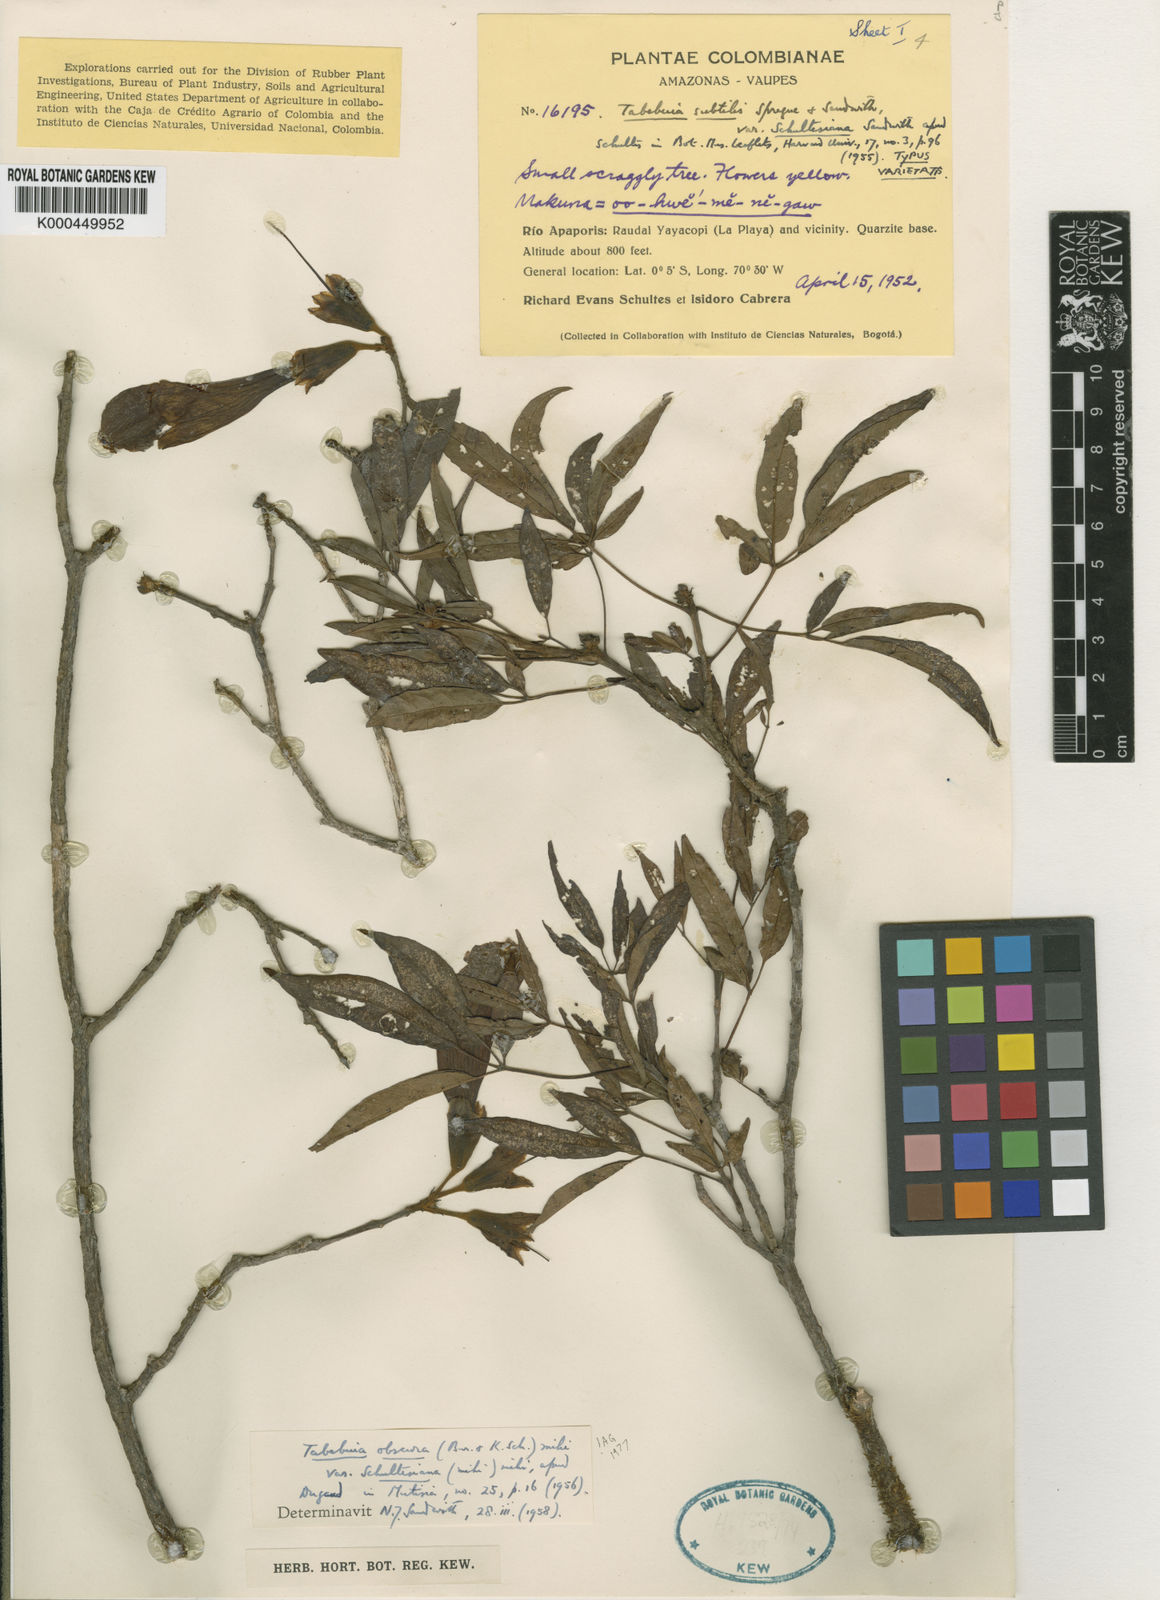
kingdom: Plantae
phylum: Tracheophyta
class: Magnoliopsida
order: Lamiales
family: Bignoniaceae
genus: Handroanthus
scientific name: Handroanthus obscurus
